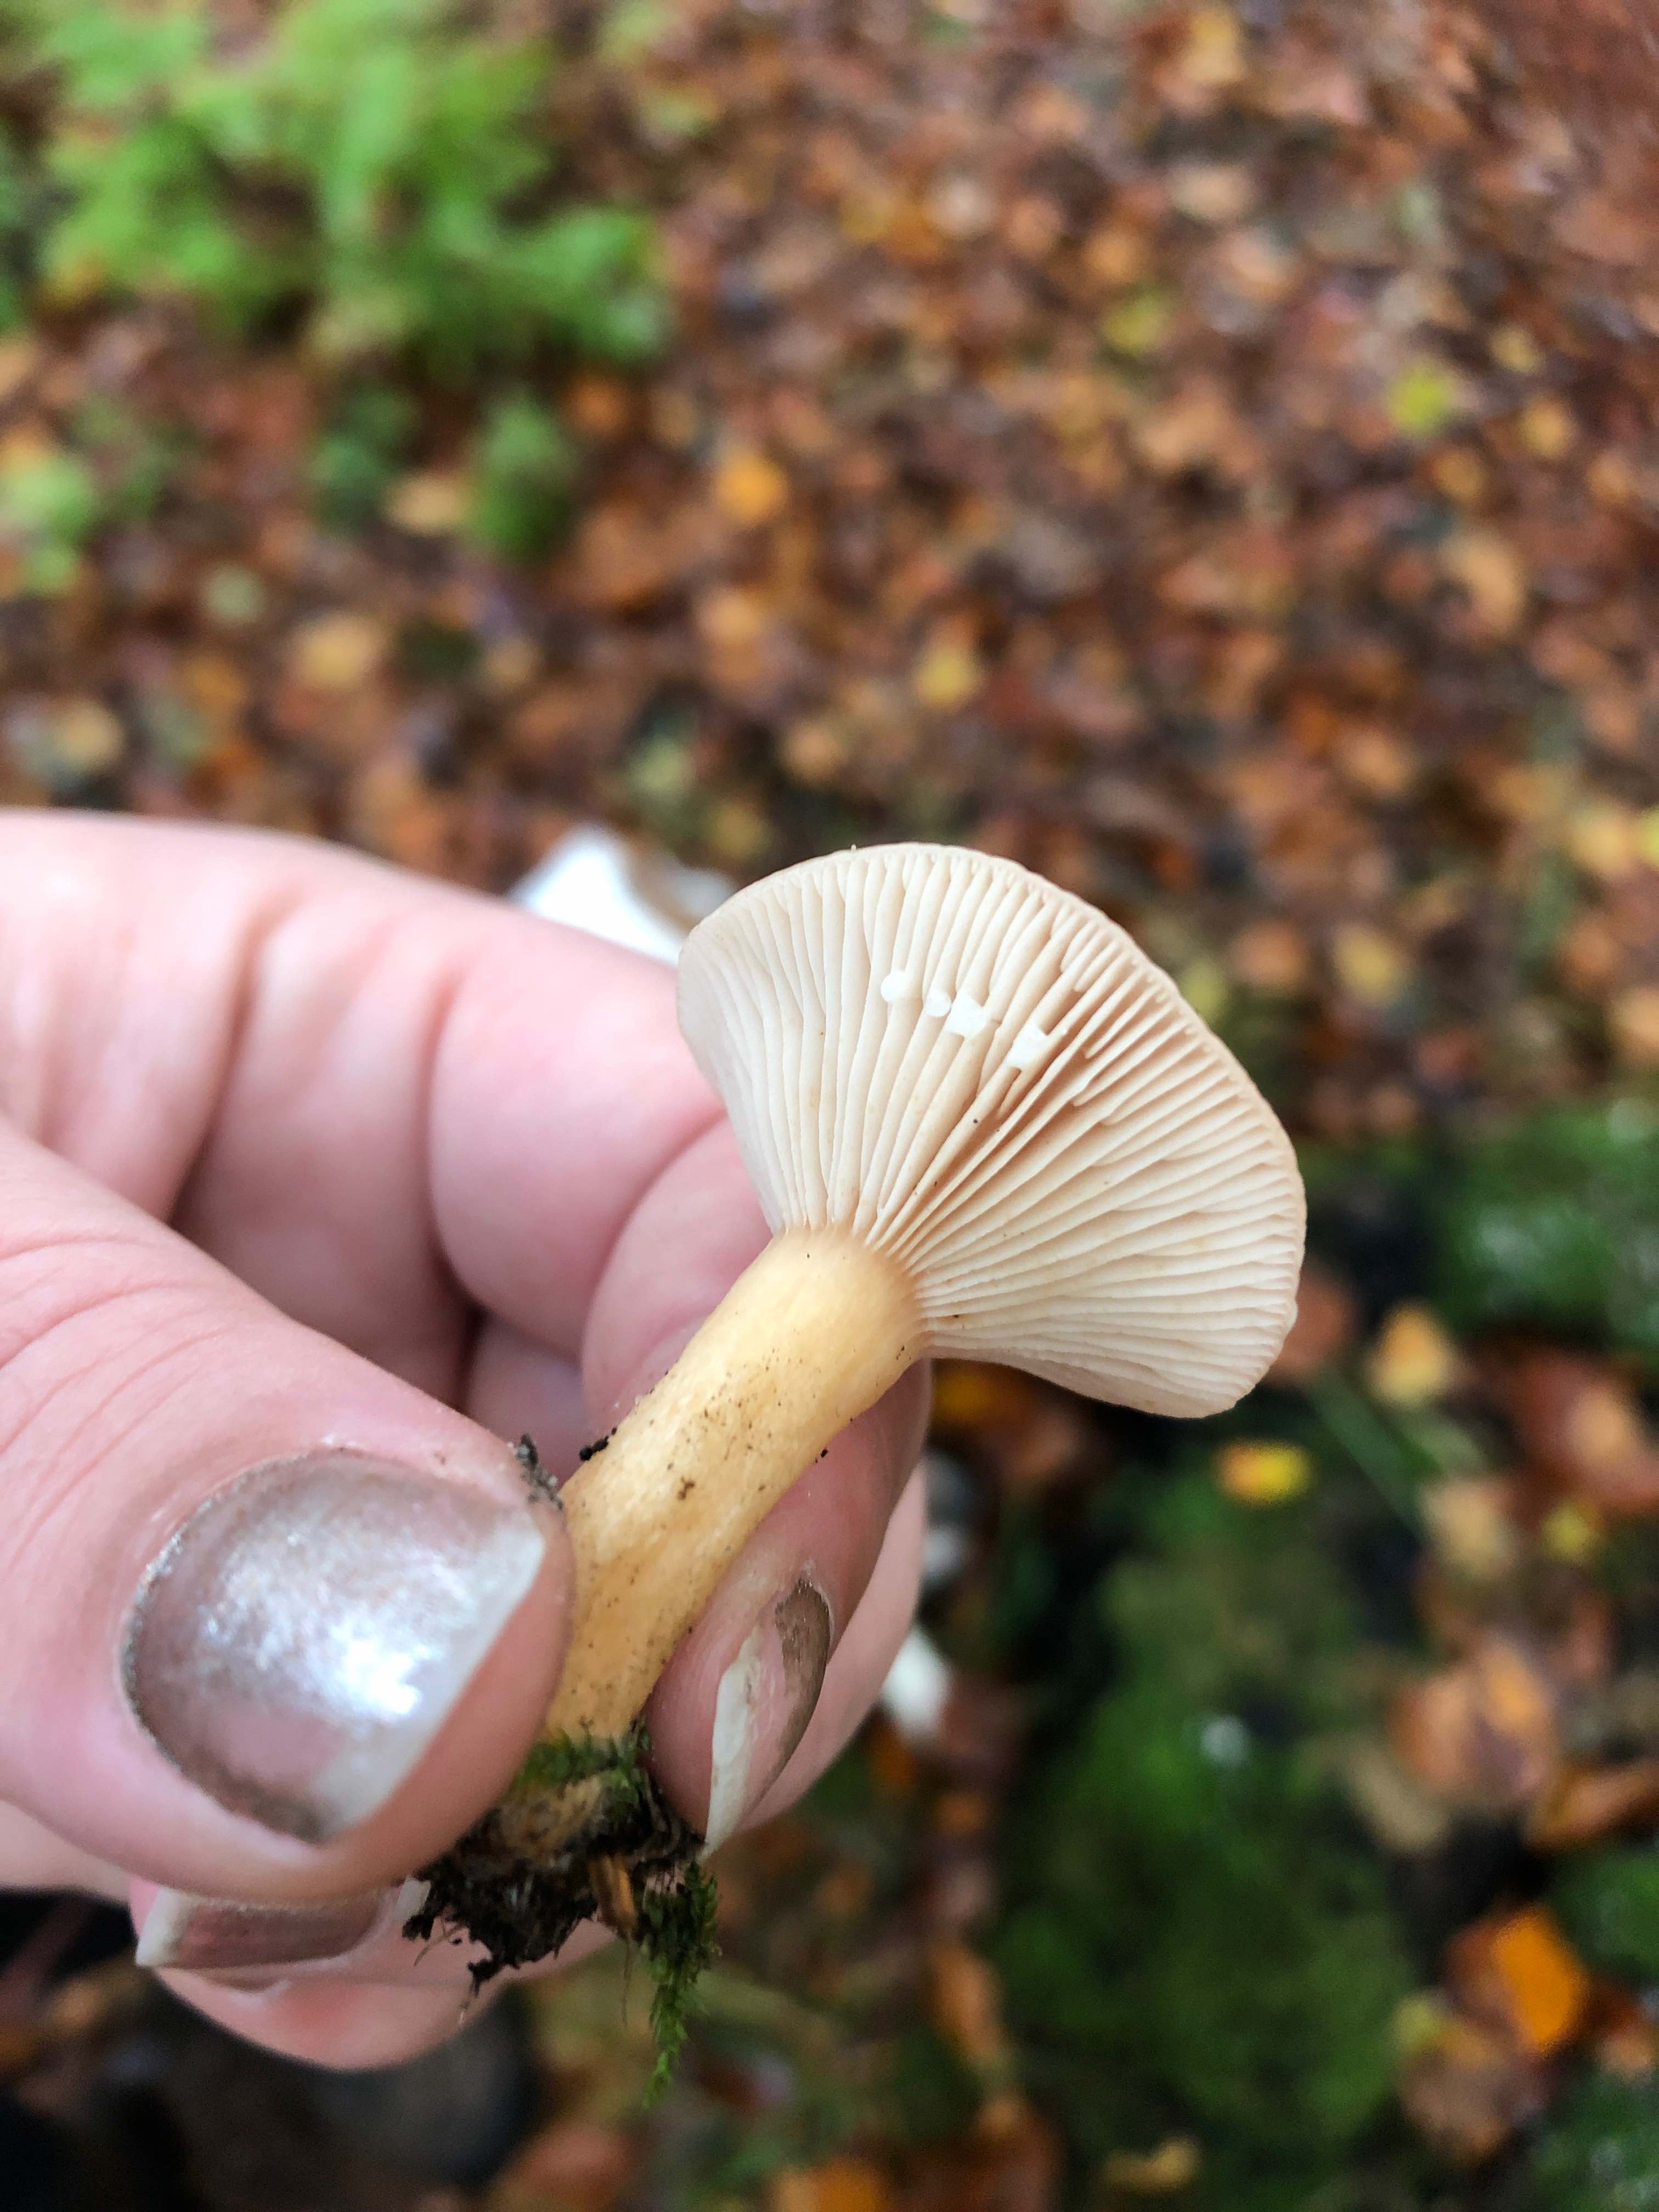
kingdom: Fungi
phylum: Basidiomycota
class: Agaricomycetes
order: Russulales
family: Russulaceae
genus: Lactarius
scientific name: Lactarius
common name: mælkehat
